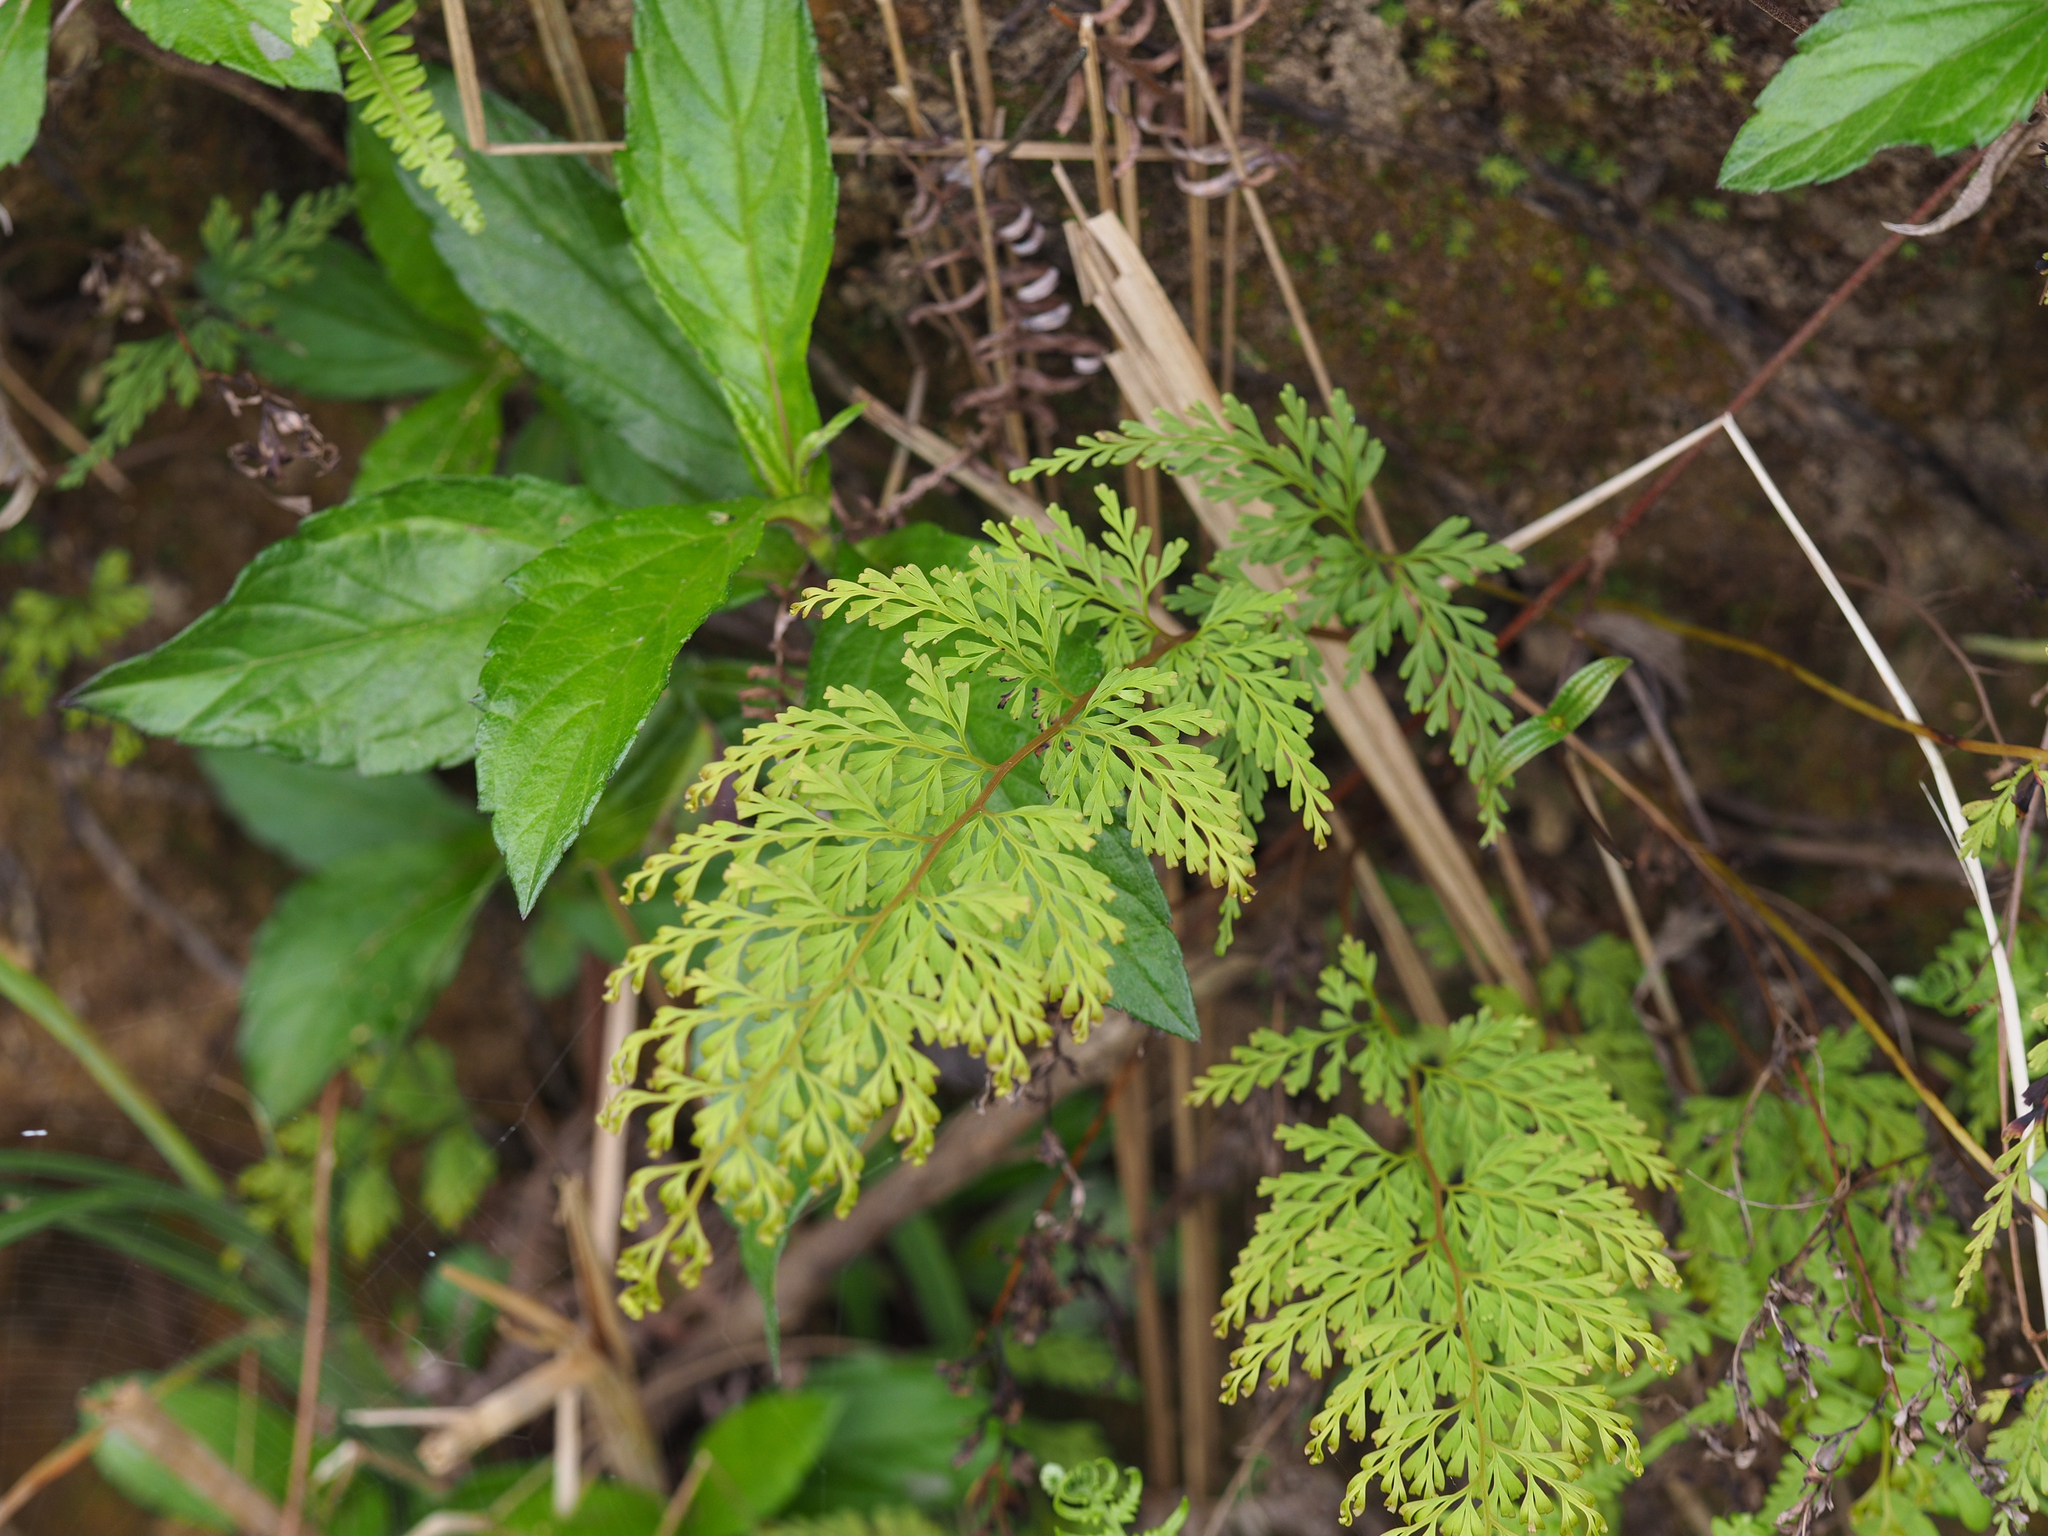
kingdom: Plantae
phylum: Tracheophyta
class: Polypodiopsida
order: Polypodiales
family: Lindsaeaceae
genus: Odontosoria
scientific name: Odontosoria chinensis
